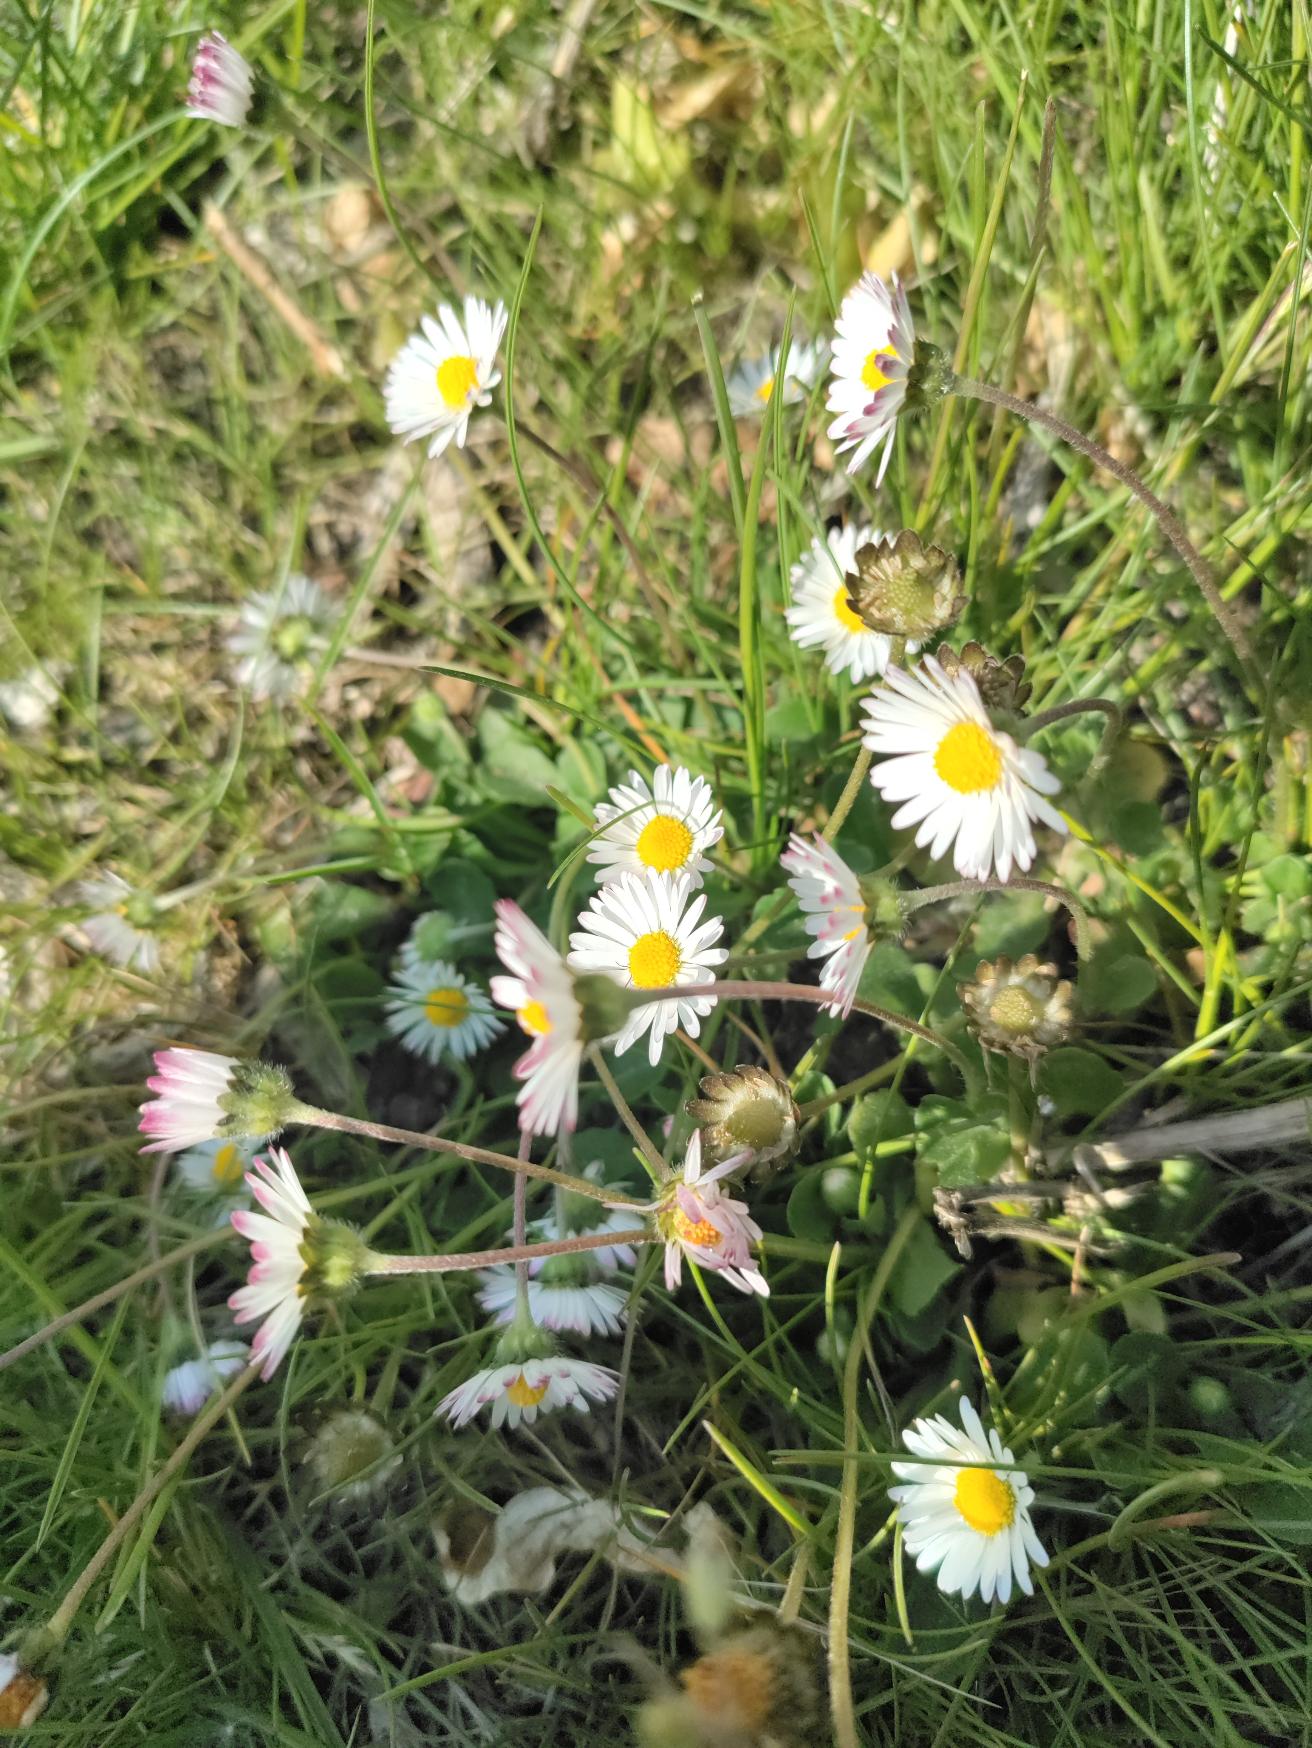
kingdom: Plantae
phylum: Tracheophyta
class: Magnoliopsida
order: Asterales
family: Asteraceae
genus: Bellis
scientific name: Bellis perennis
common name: Tusindfryd
